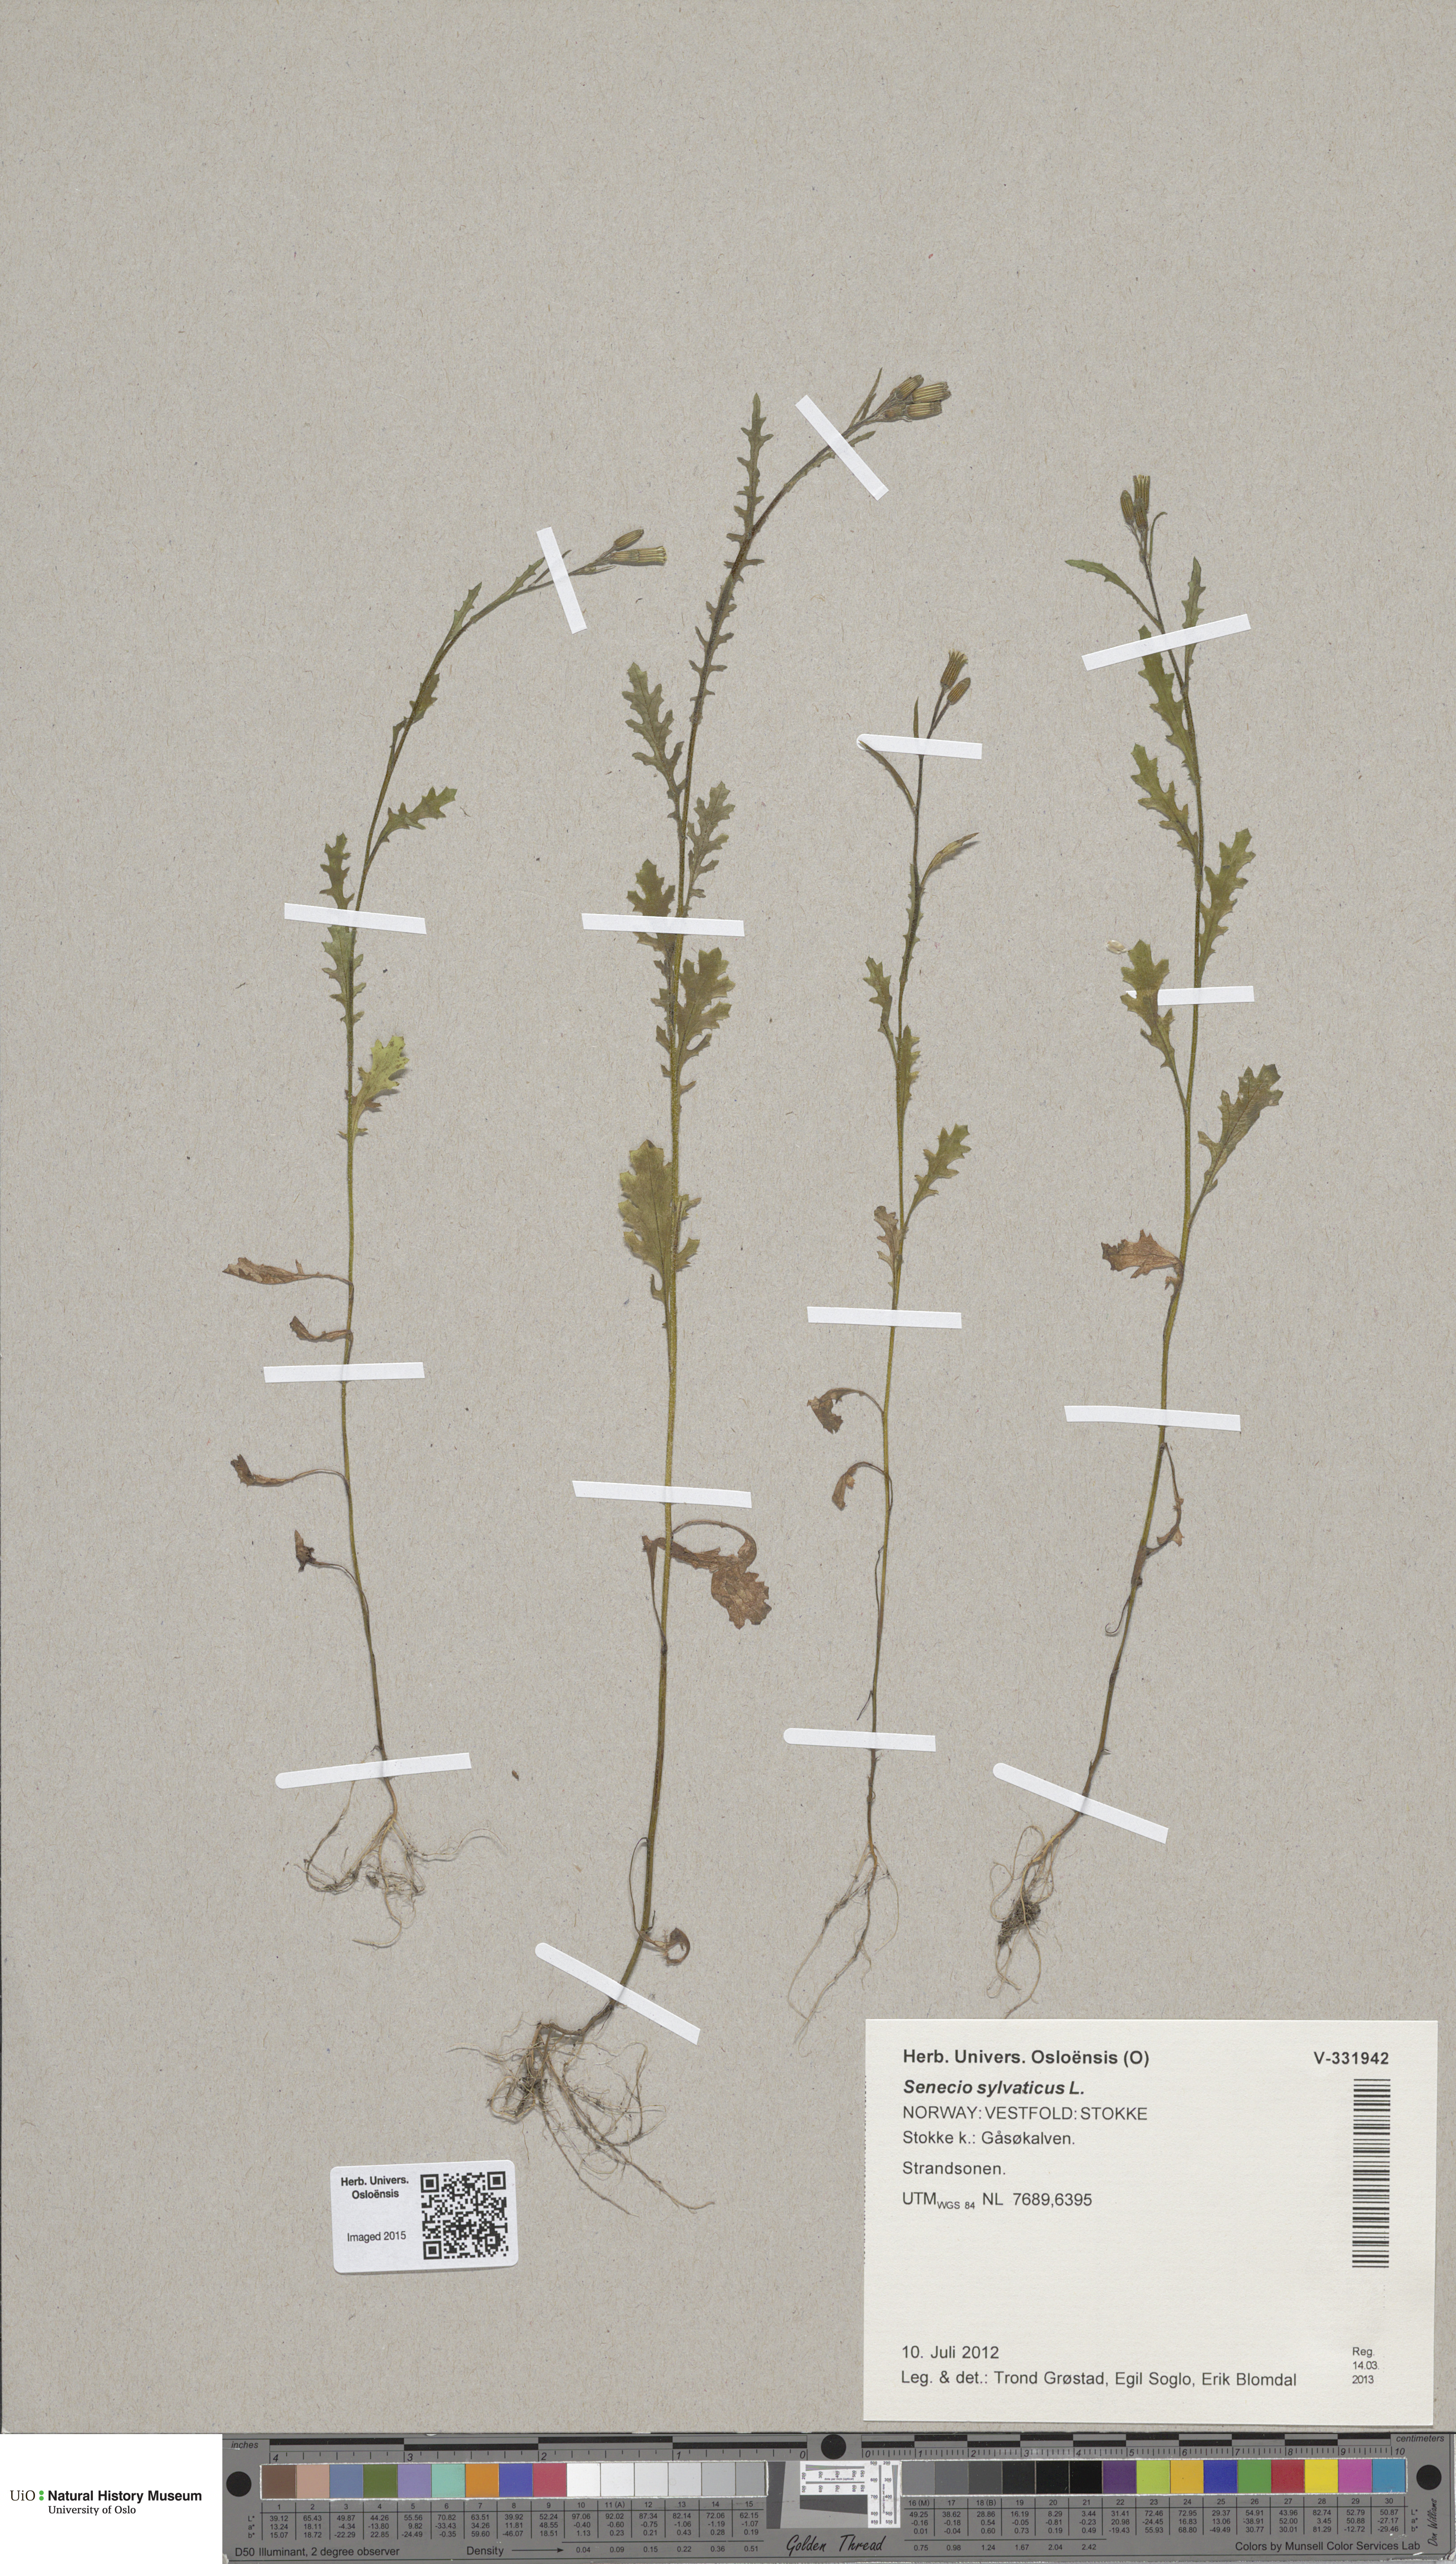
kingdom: Plantae
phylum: Tracheophyta
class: Magnoliopsida
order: Asterales
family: Asteraceae
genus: Senecio
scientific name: Senecio sylvaticus
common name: Woodland ragwort
